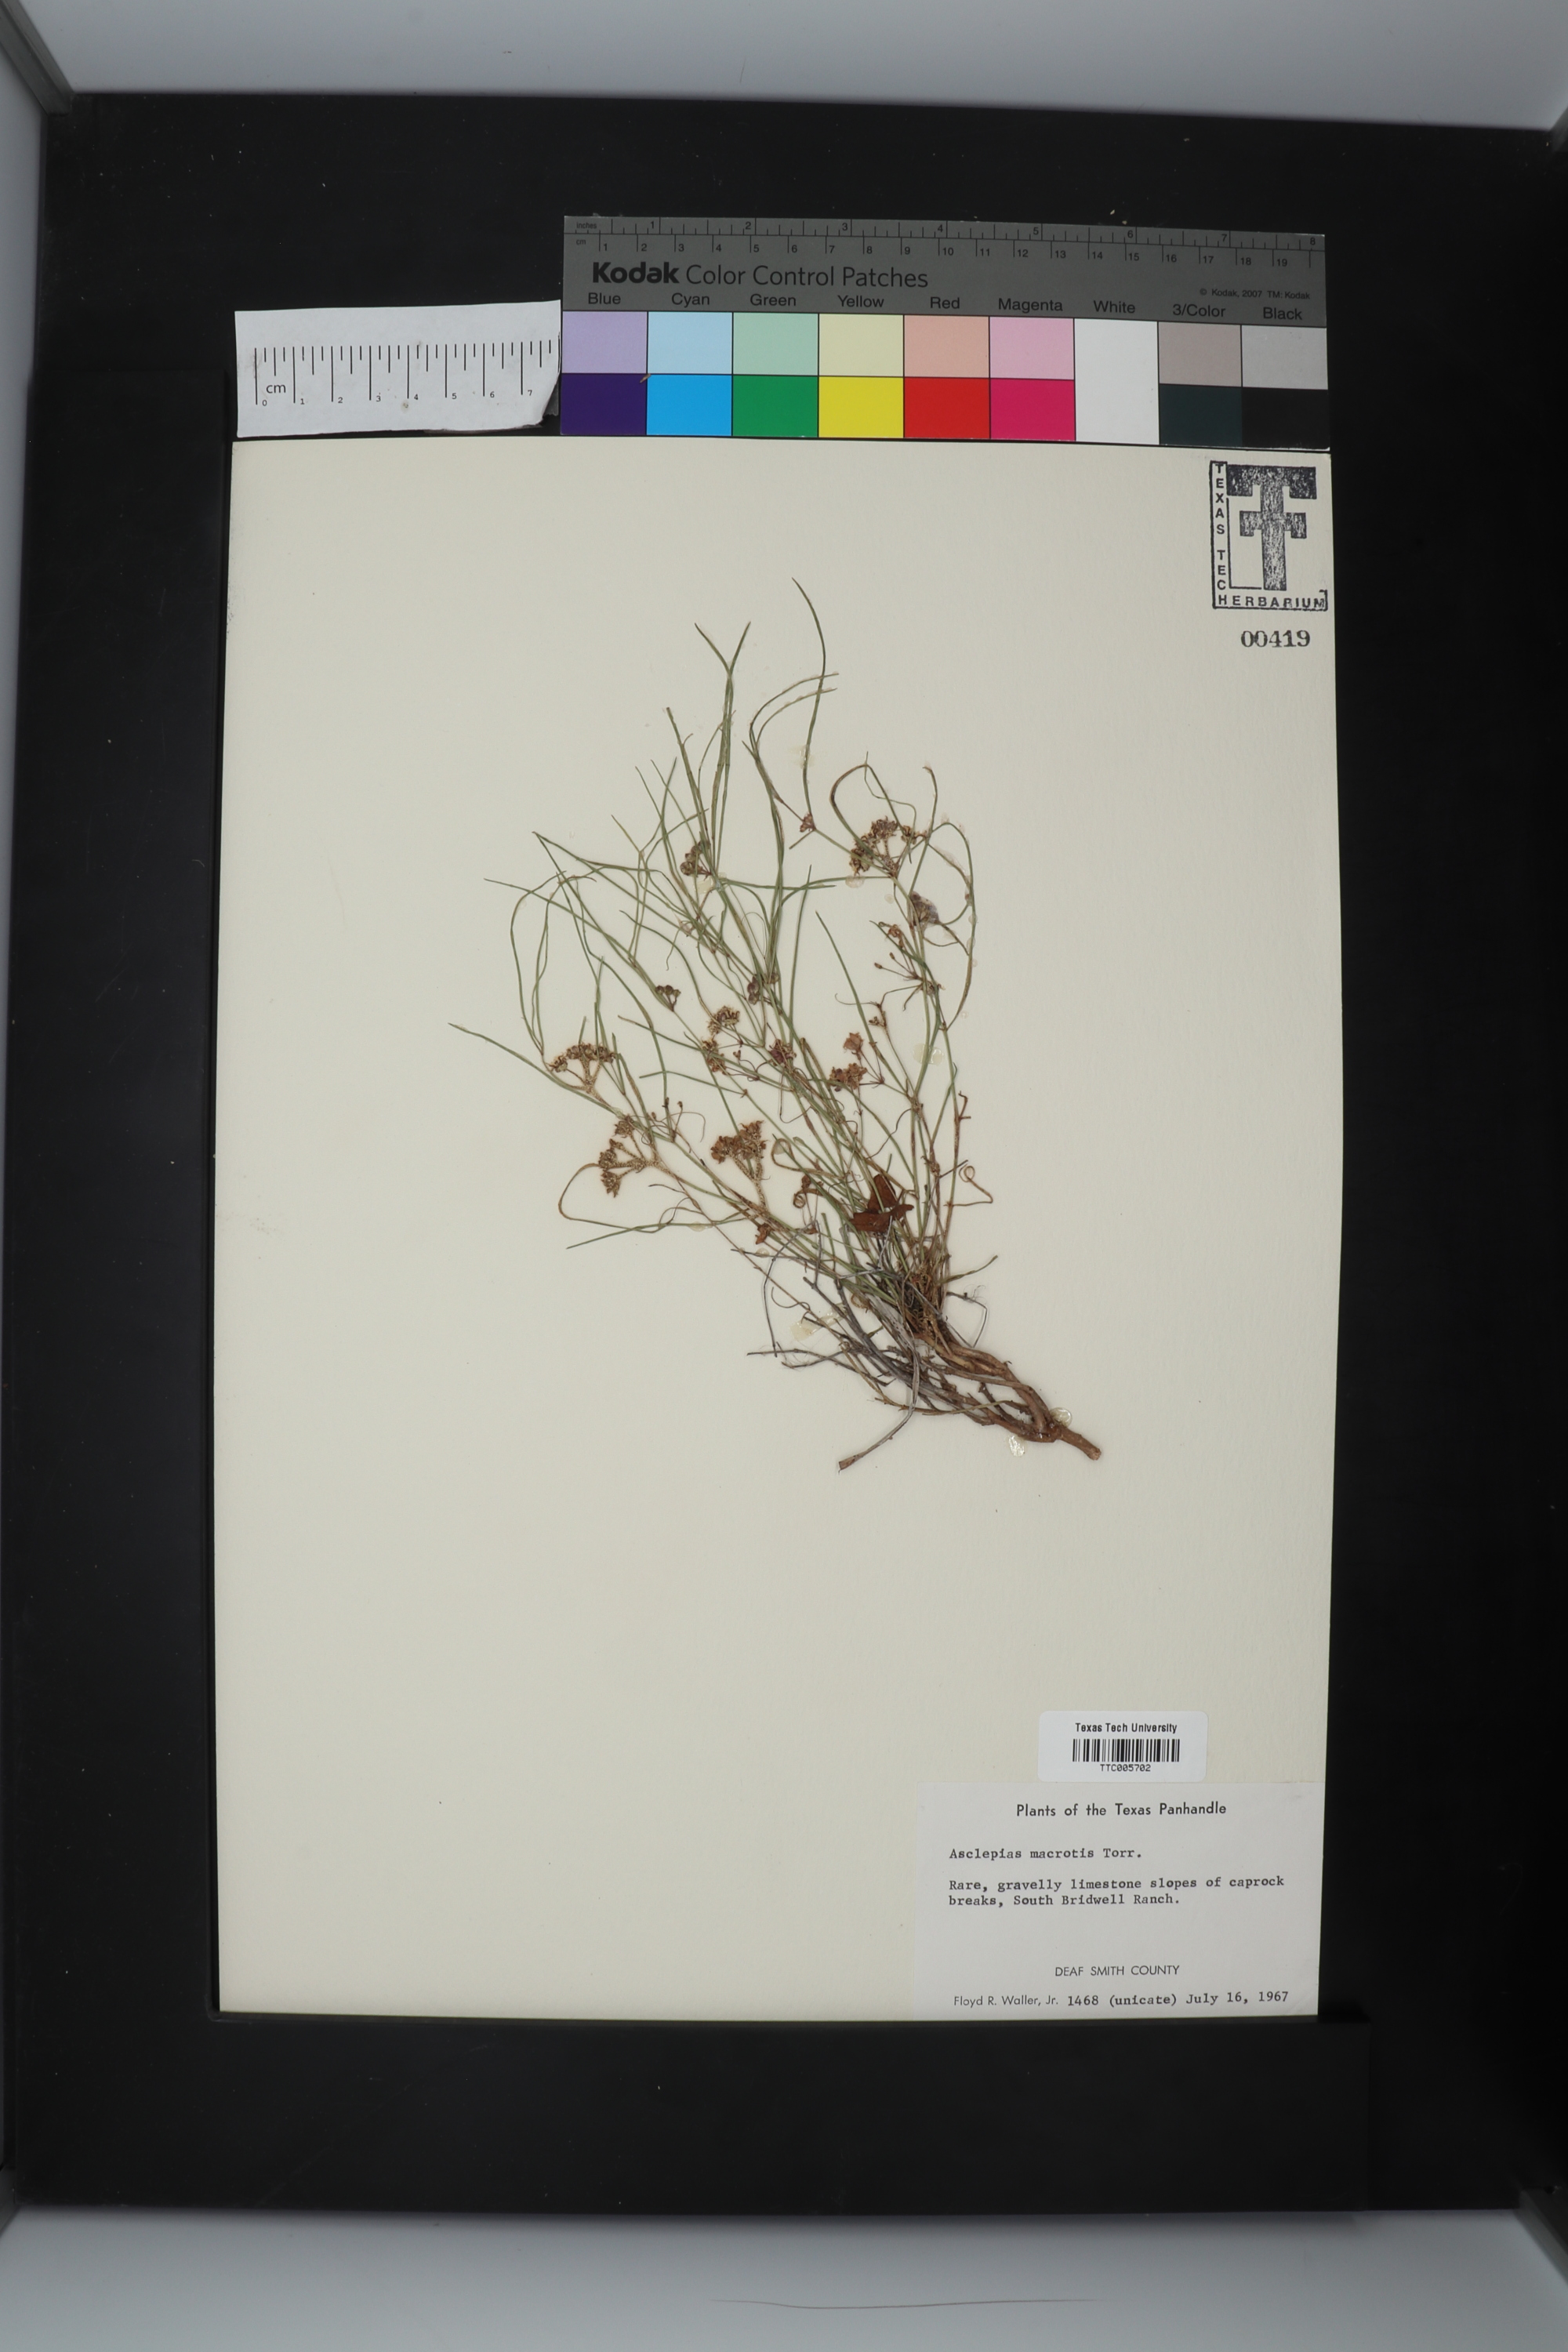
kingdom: Plantae
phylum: Tracheophyta
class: Magnoliopsida
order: Gentianales
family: Apocynaceae
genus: Asclepias
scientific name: Asclepias macrotis
